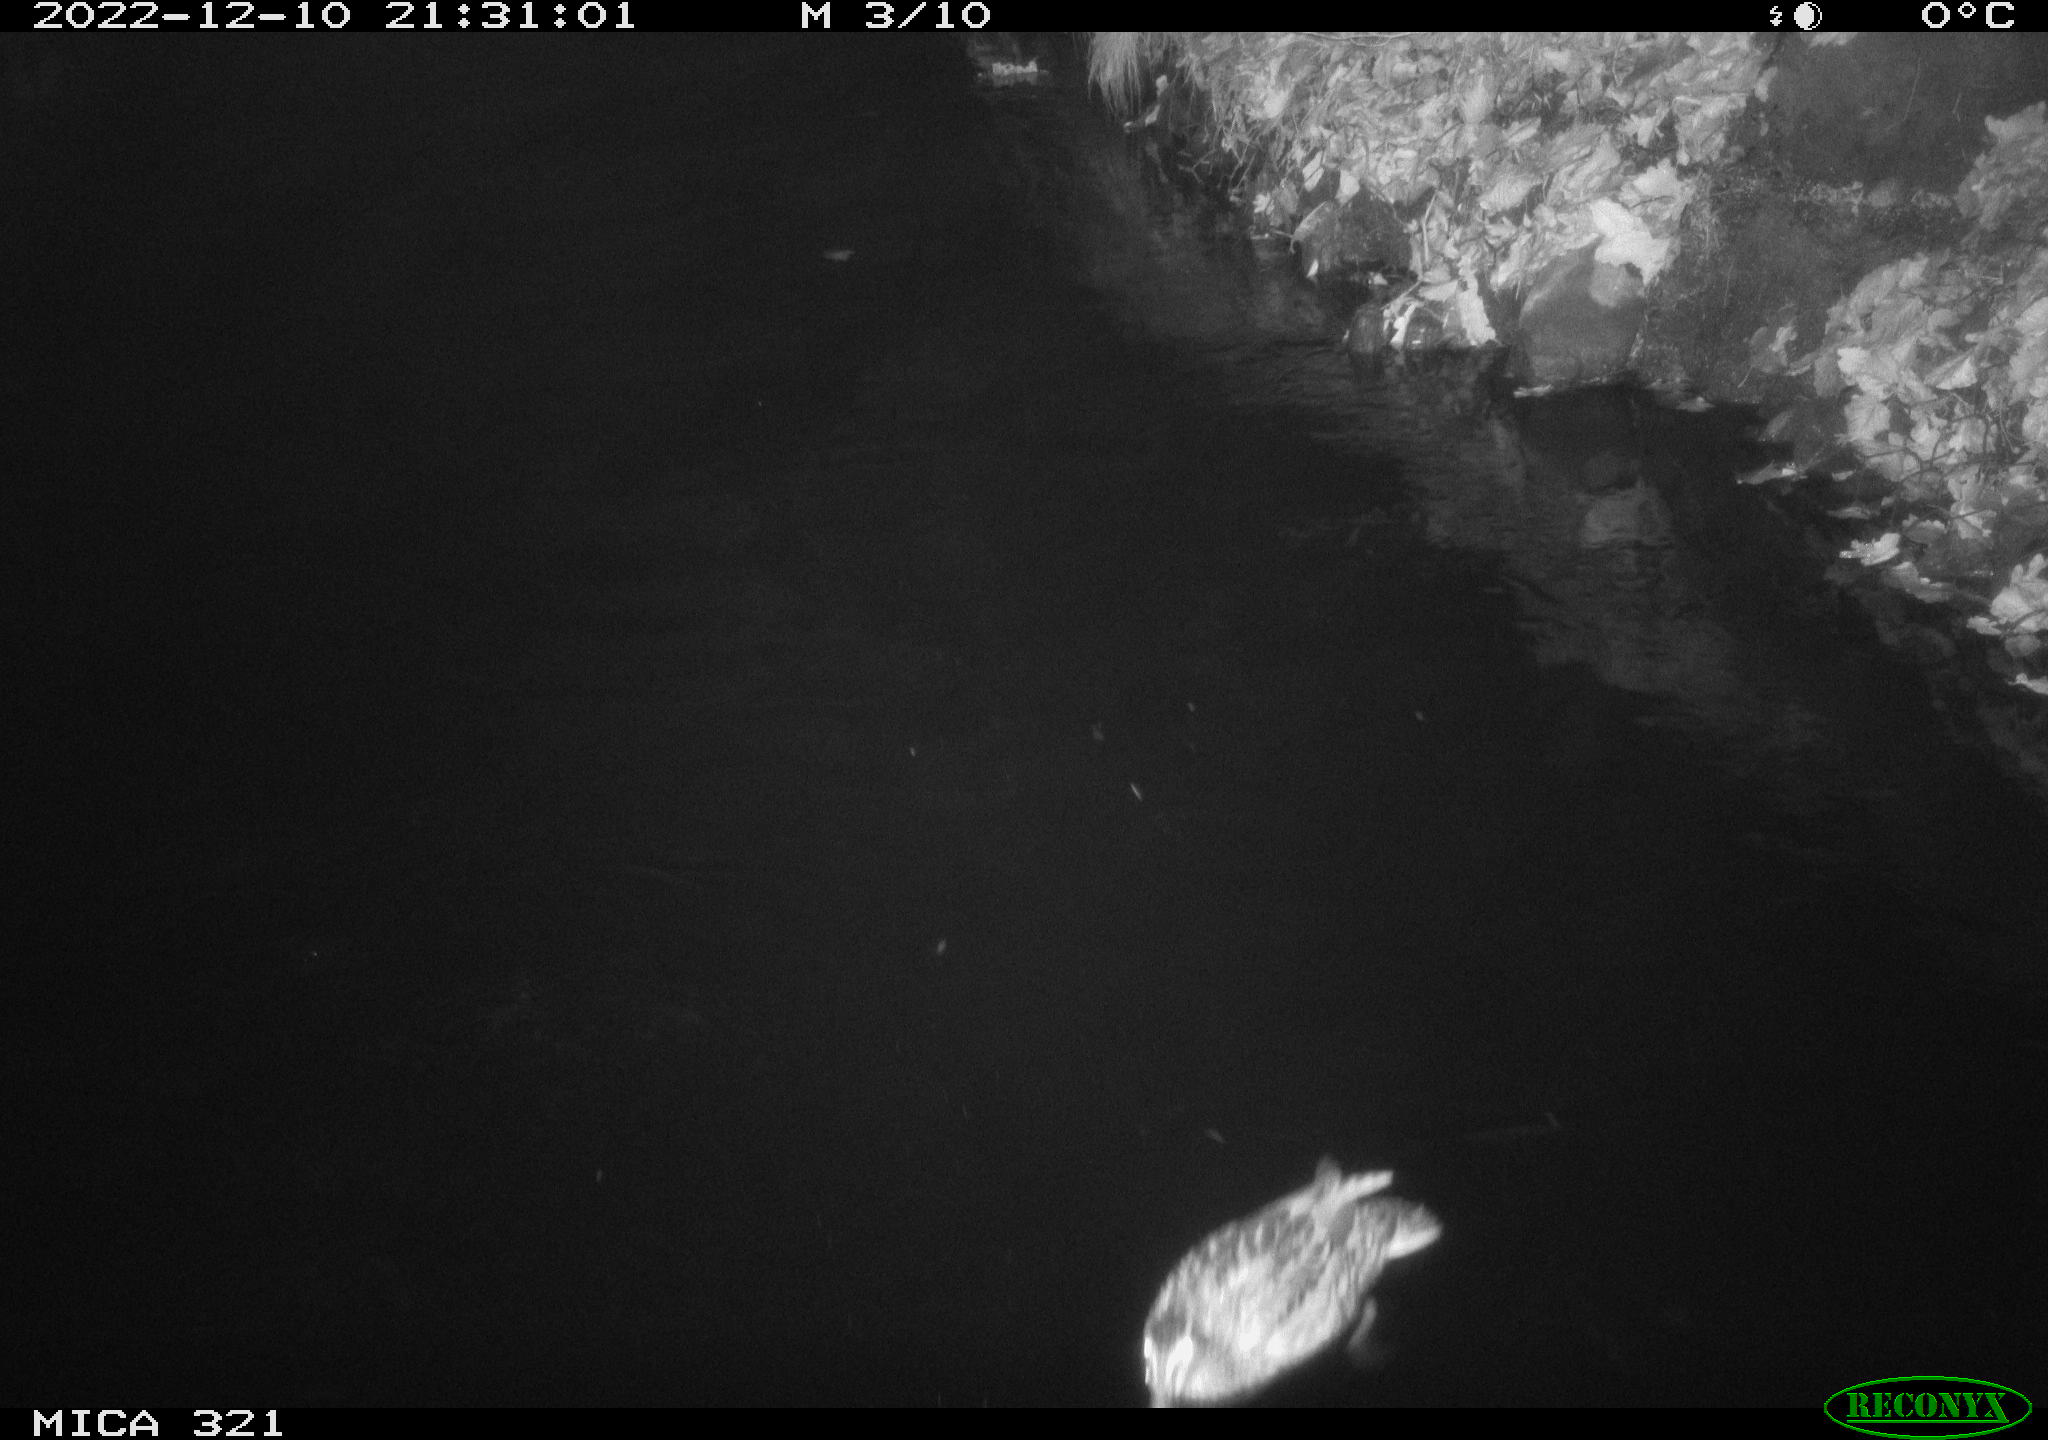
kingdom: Animalia
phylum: Chordata
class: Aves
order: Anseriformes
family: Anatidae
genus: Anas
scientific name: Anas
